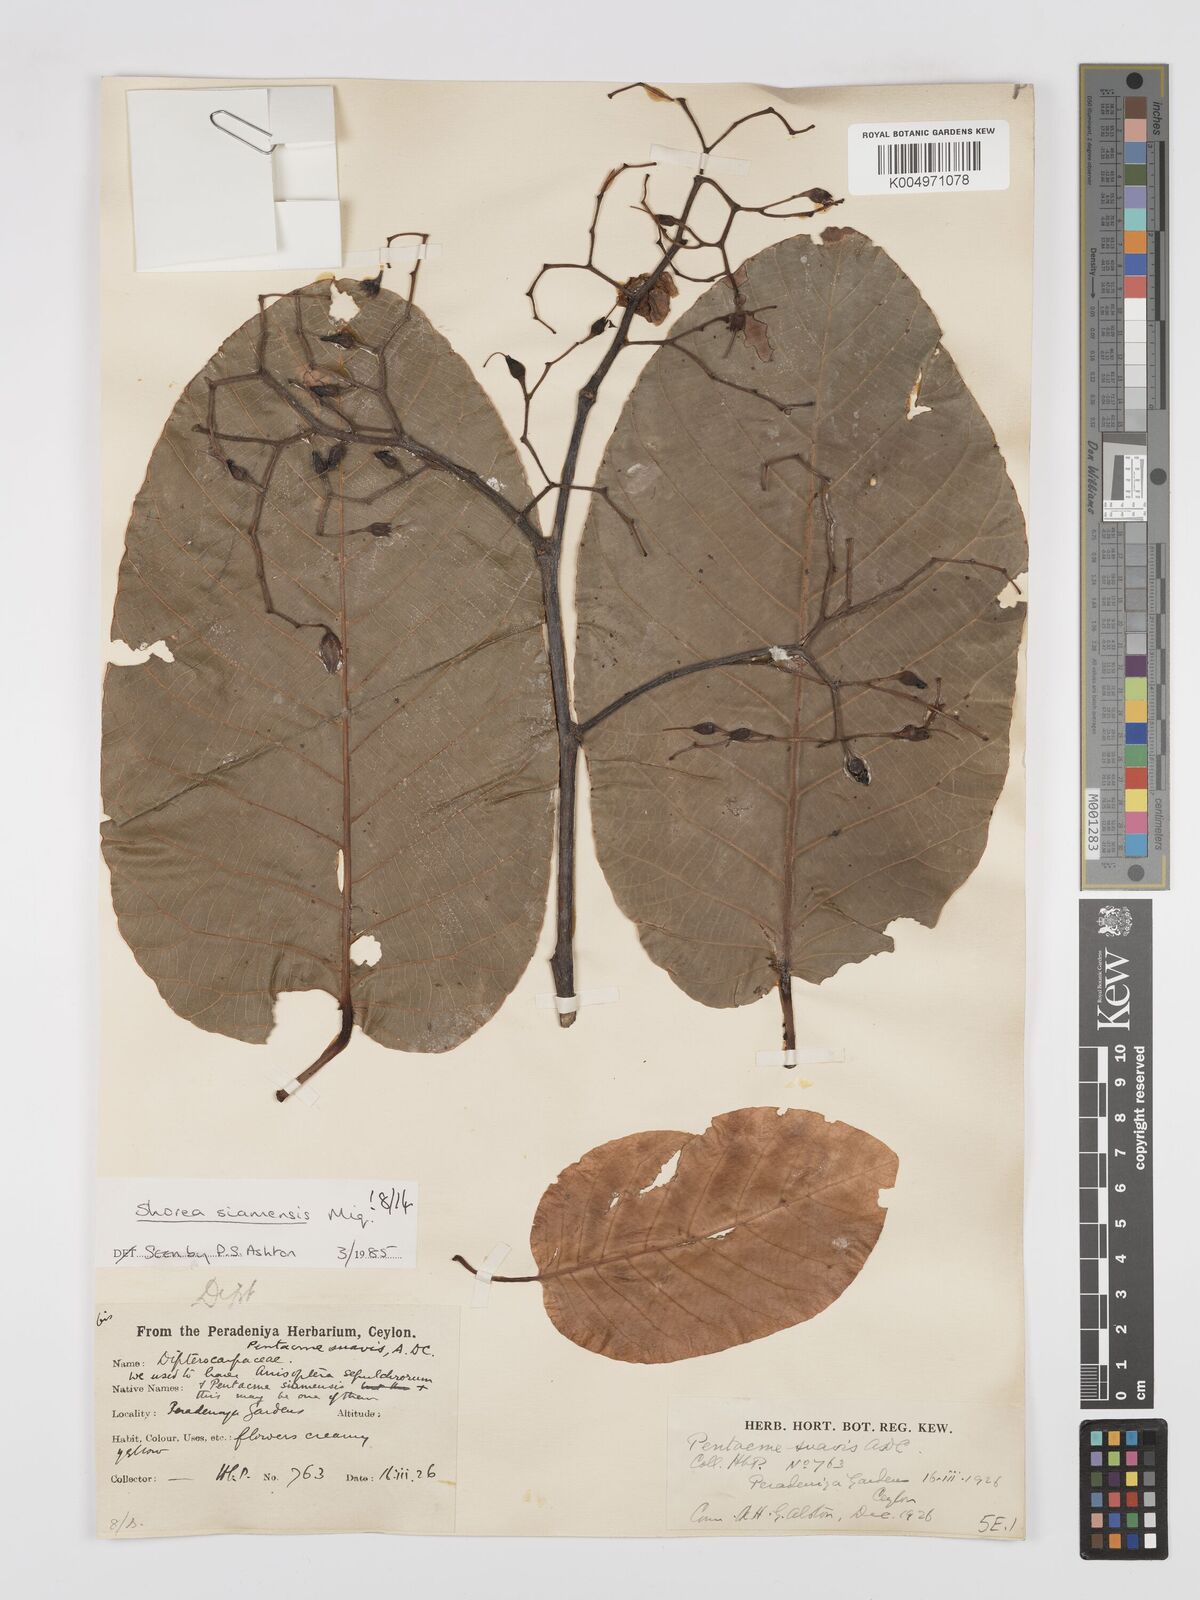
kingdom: Plantae
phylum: Tracheophyta
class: Magnoliopsida
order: Malvales
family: Dipterocarpaceae
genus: Pentacme
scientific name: Pentacme siamensis
